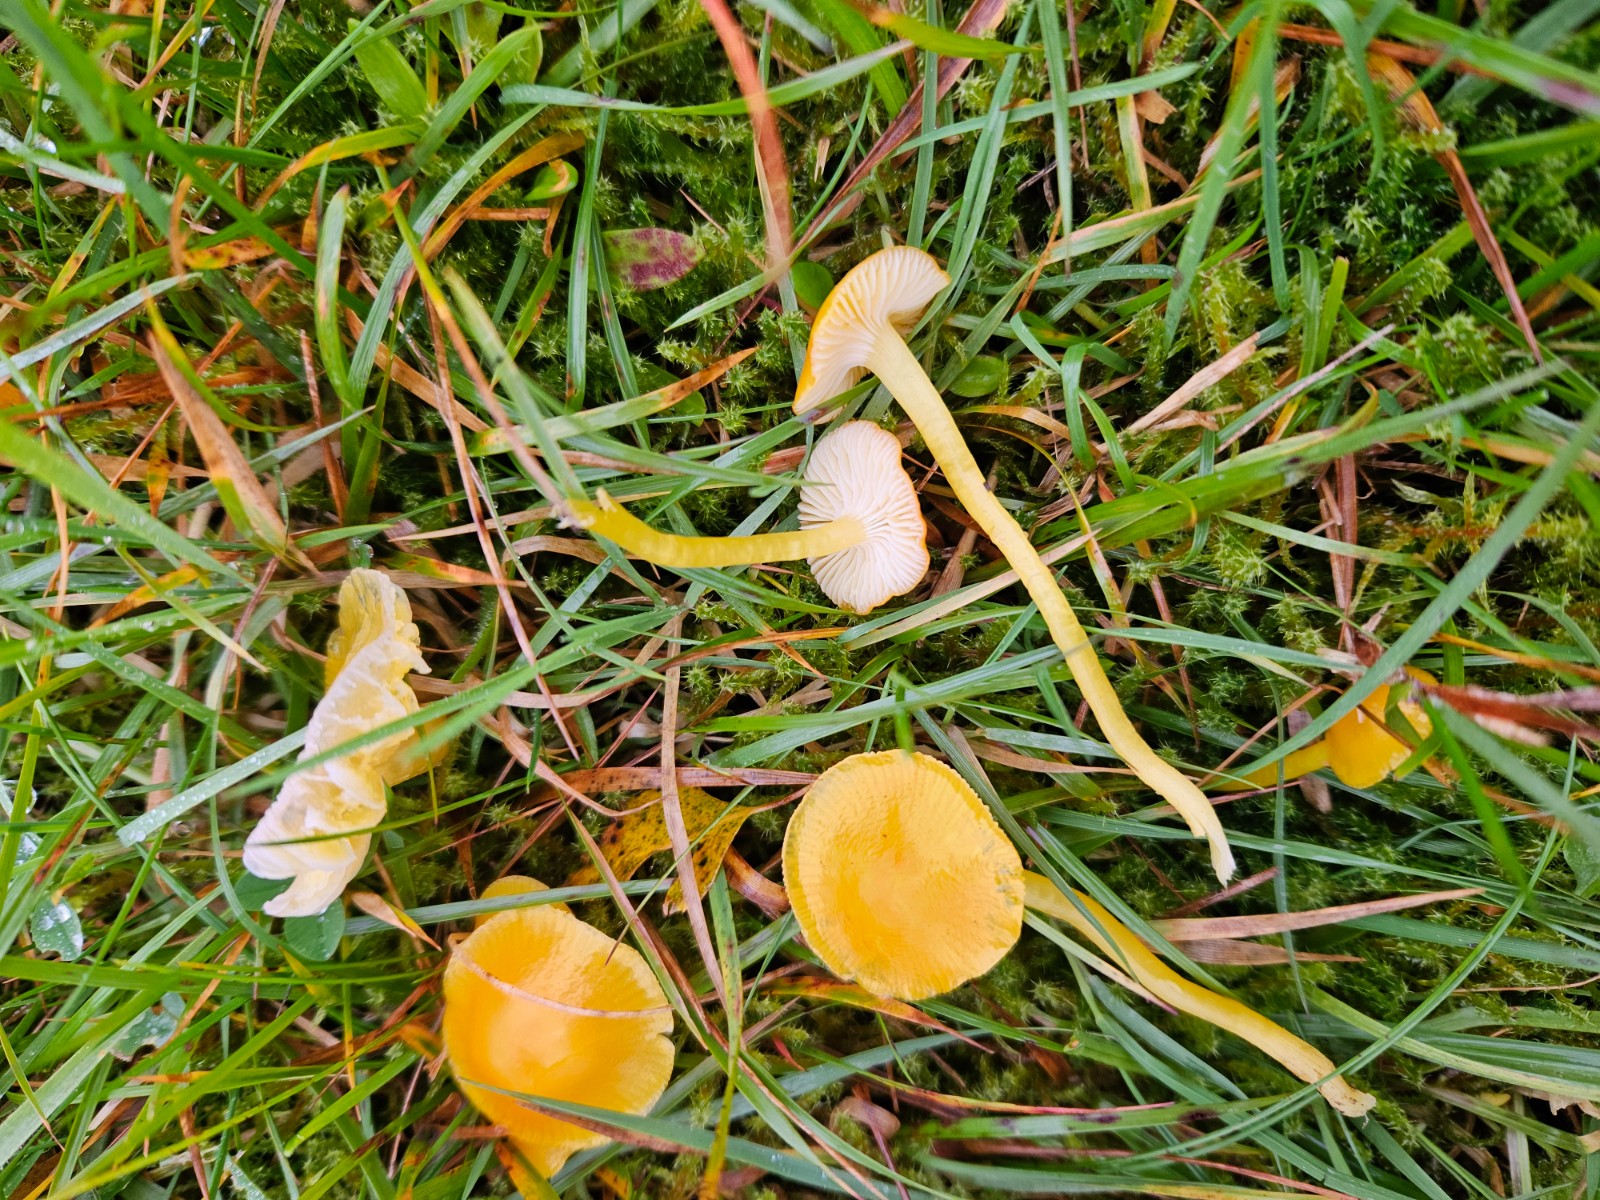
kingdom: Fungi
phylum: Basidiomycota
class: Agaricomycetes
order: Agaricales
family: Hygrophoraceae
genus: Hygrocybe
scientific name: Hygrocybe ceracea
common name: voksgul vokshat
